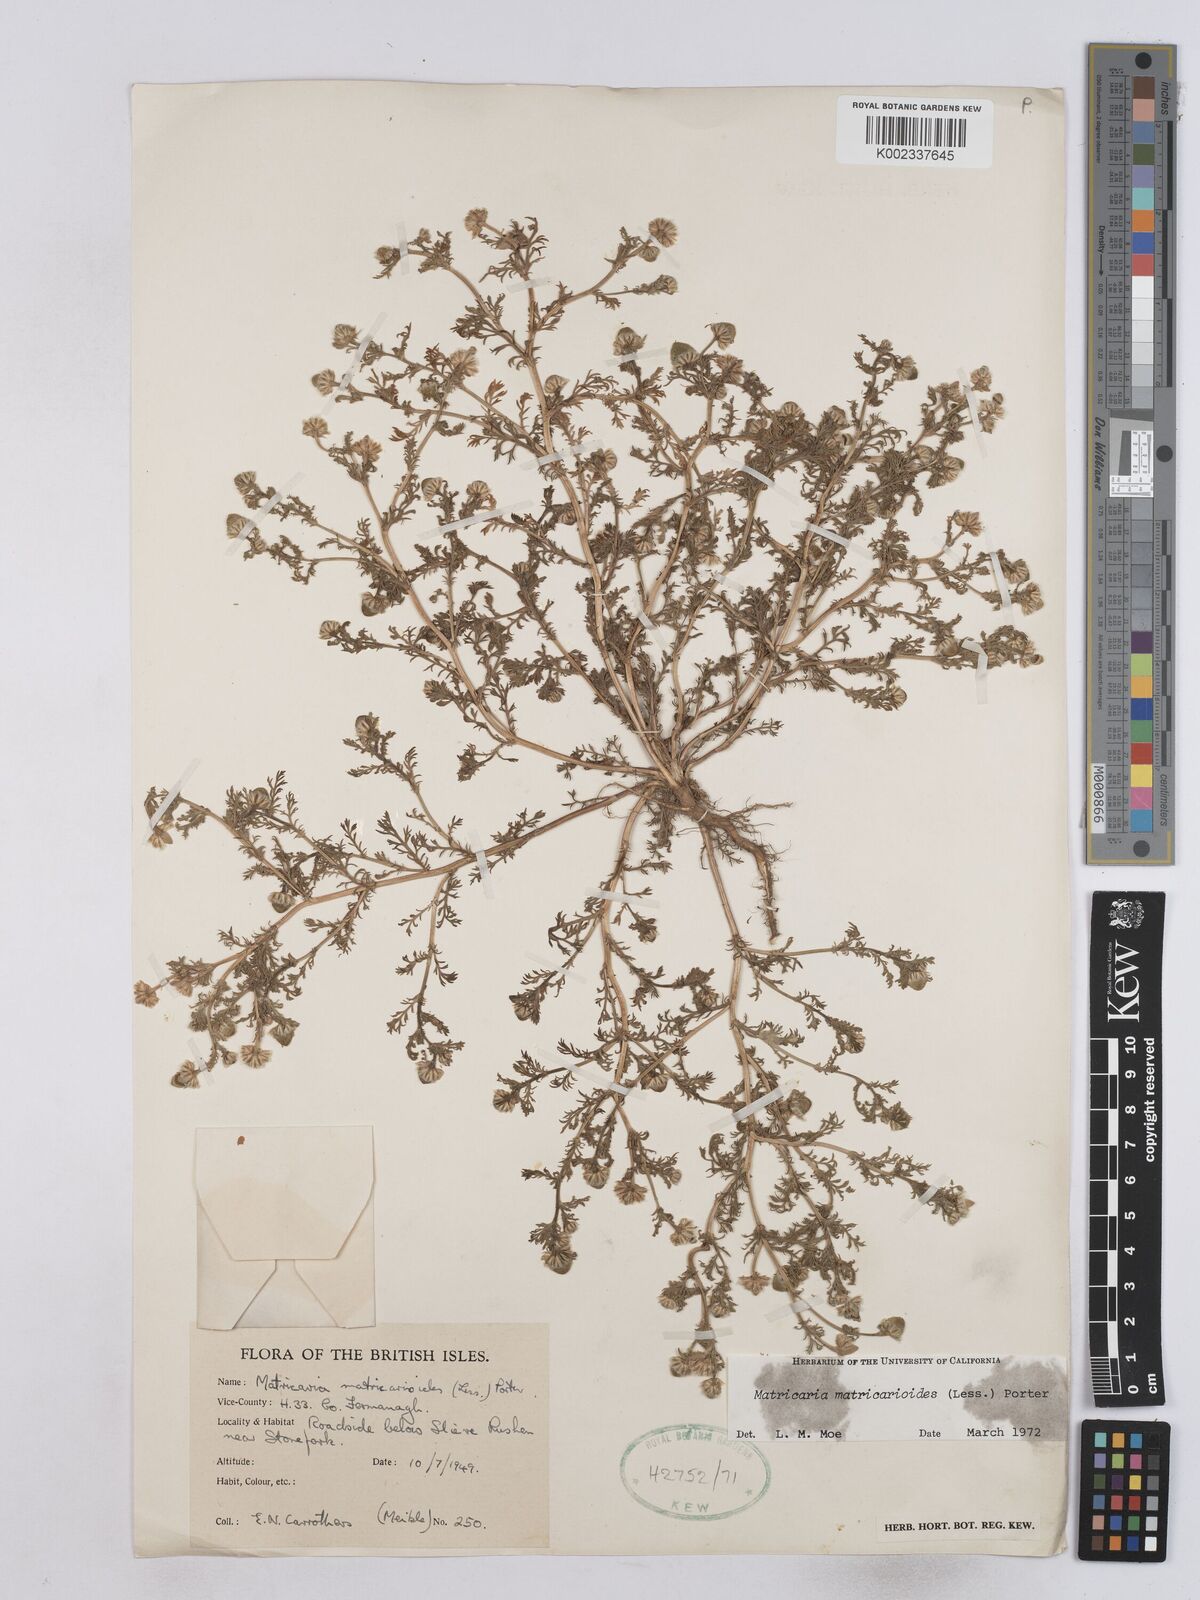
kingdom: Plantae
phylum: Tracheophyta
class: Magnoliopsida
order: Asterales
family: Asteraceae
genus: Matricaria
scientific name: Matricaria discoidea
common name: Disc mayweed
